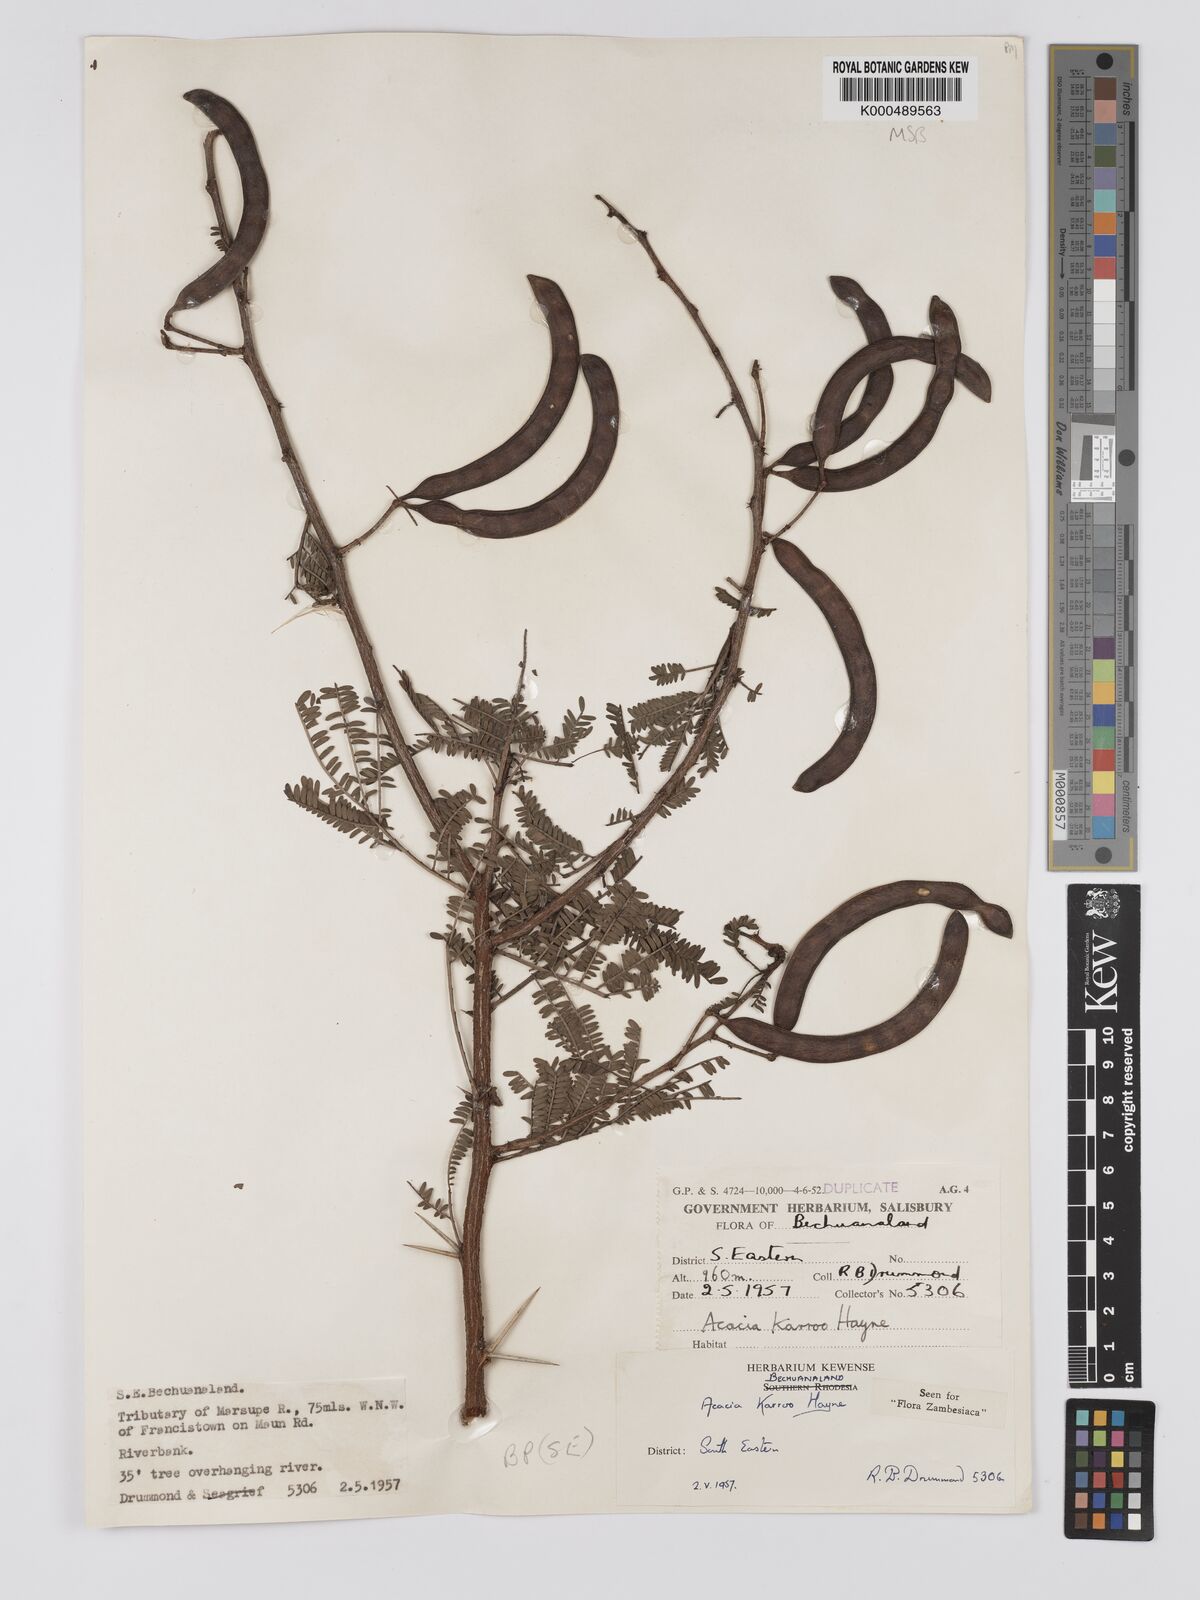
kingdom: Plantae
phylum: Tracheophyta
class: Magnoliopsida
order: Fabales
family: Fabaceae
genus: Vachellia
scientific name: Vachellia karroo
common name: Sweet thorn
